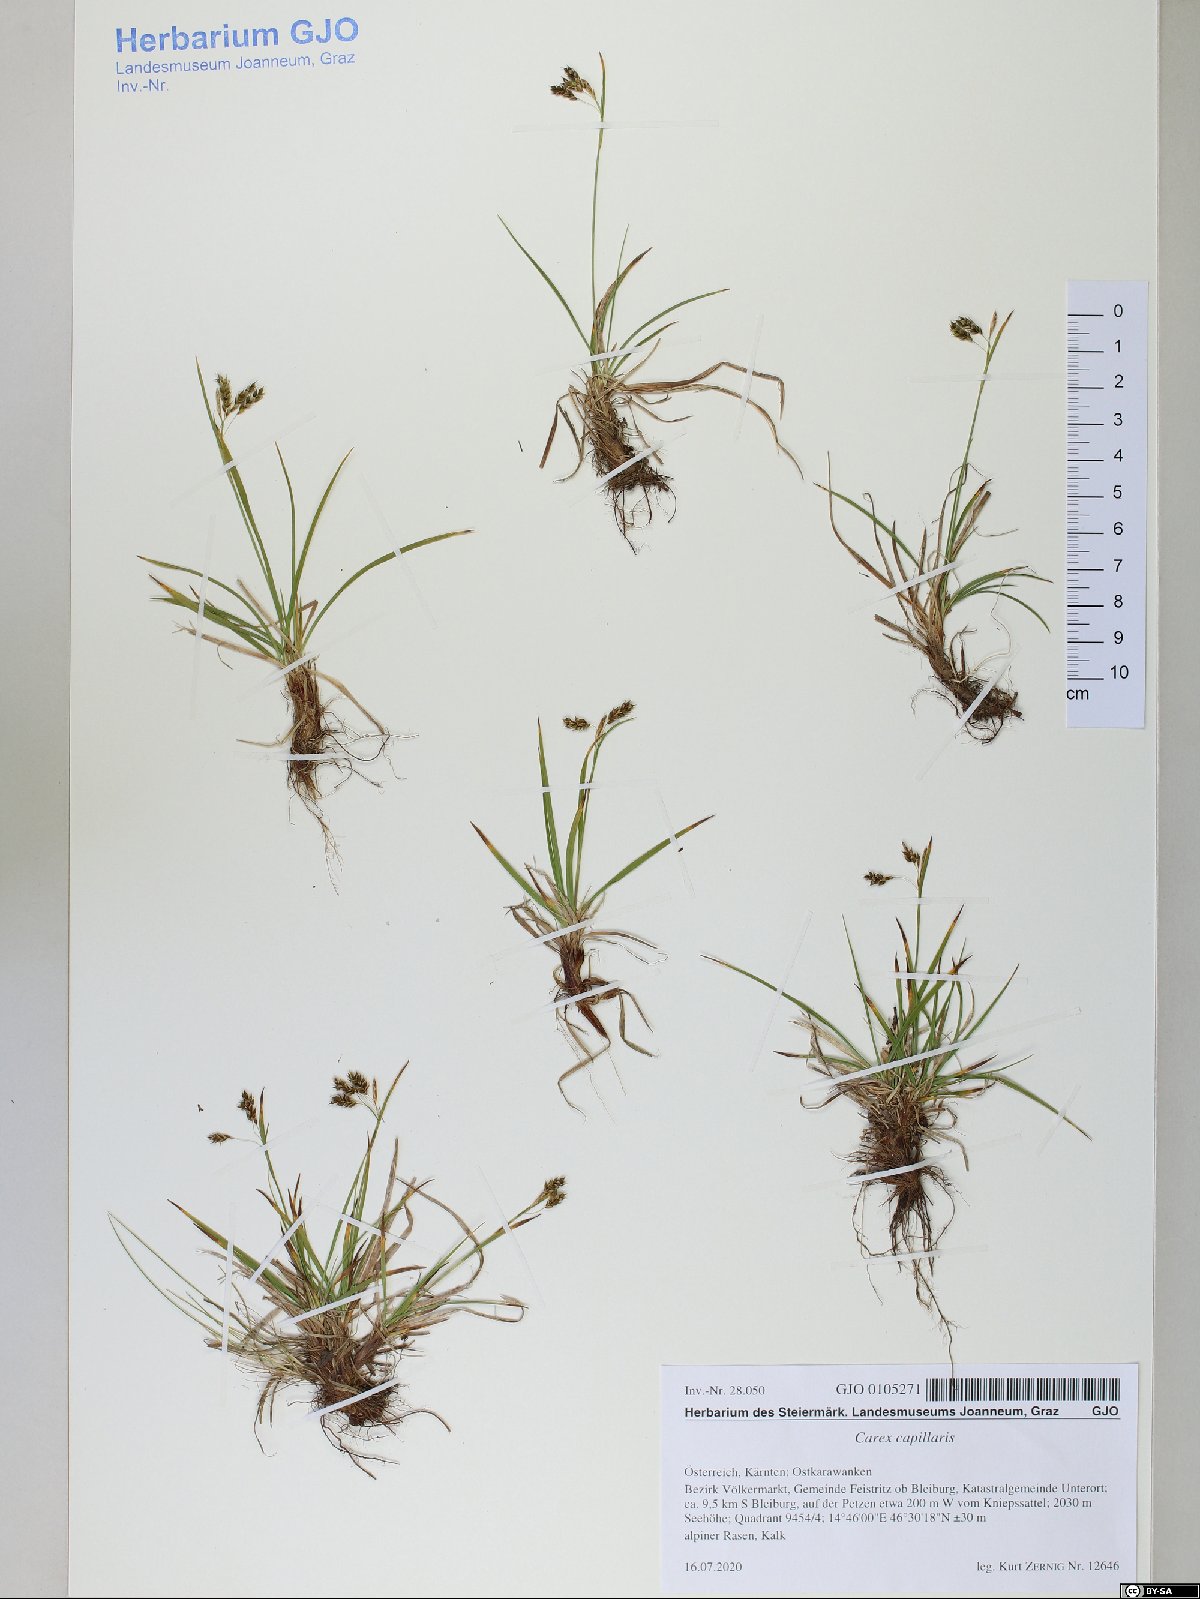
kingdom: Plantae
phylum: Tracheophyta
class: Liliopsida
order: Poales
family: Cyperaceae
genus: Carex
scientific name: Carex capillaris
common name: Hair sedge
